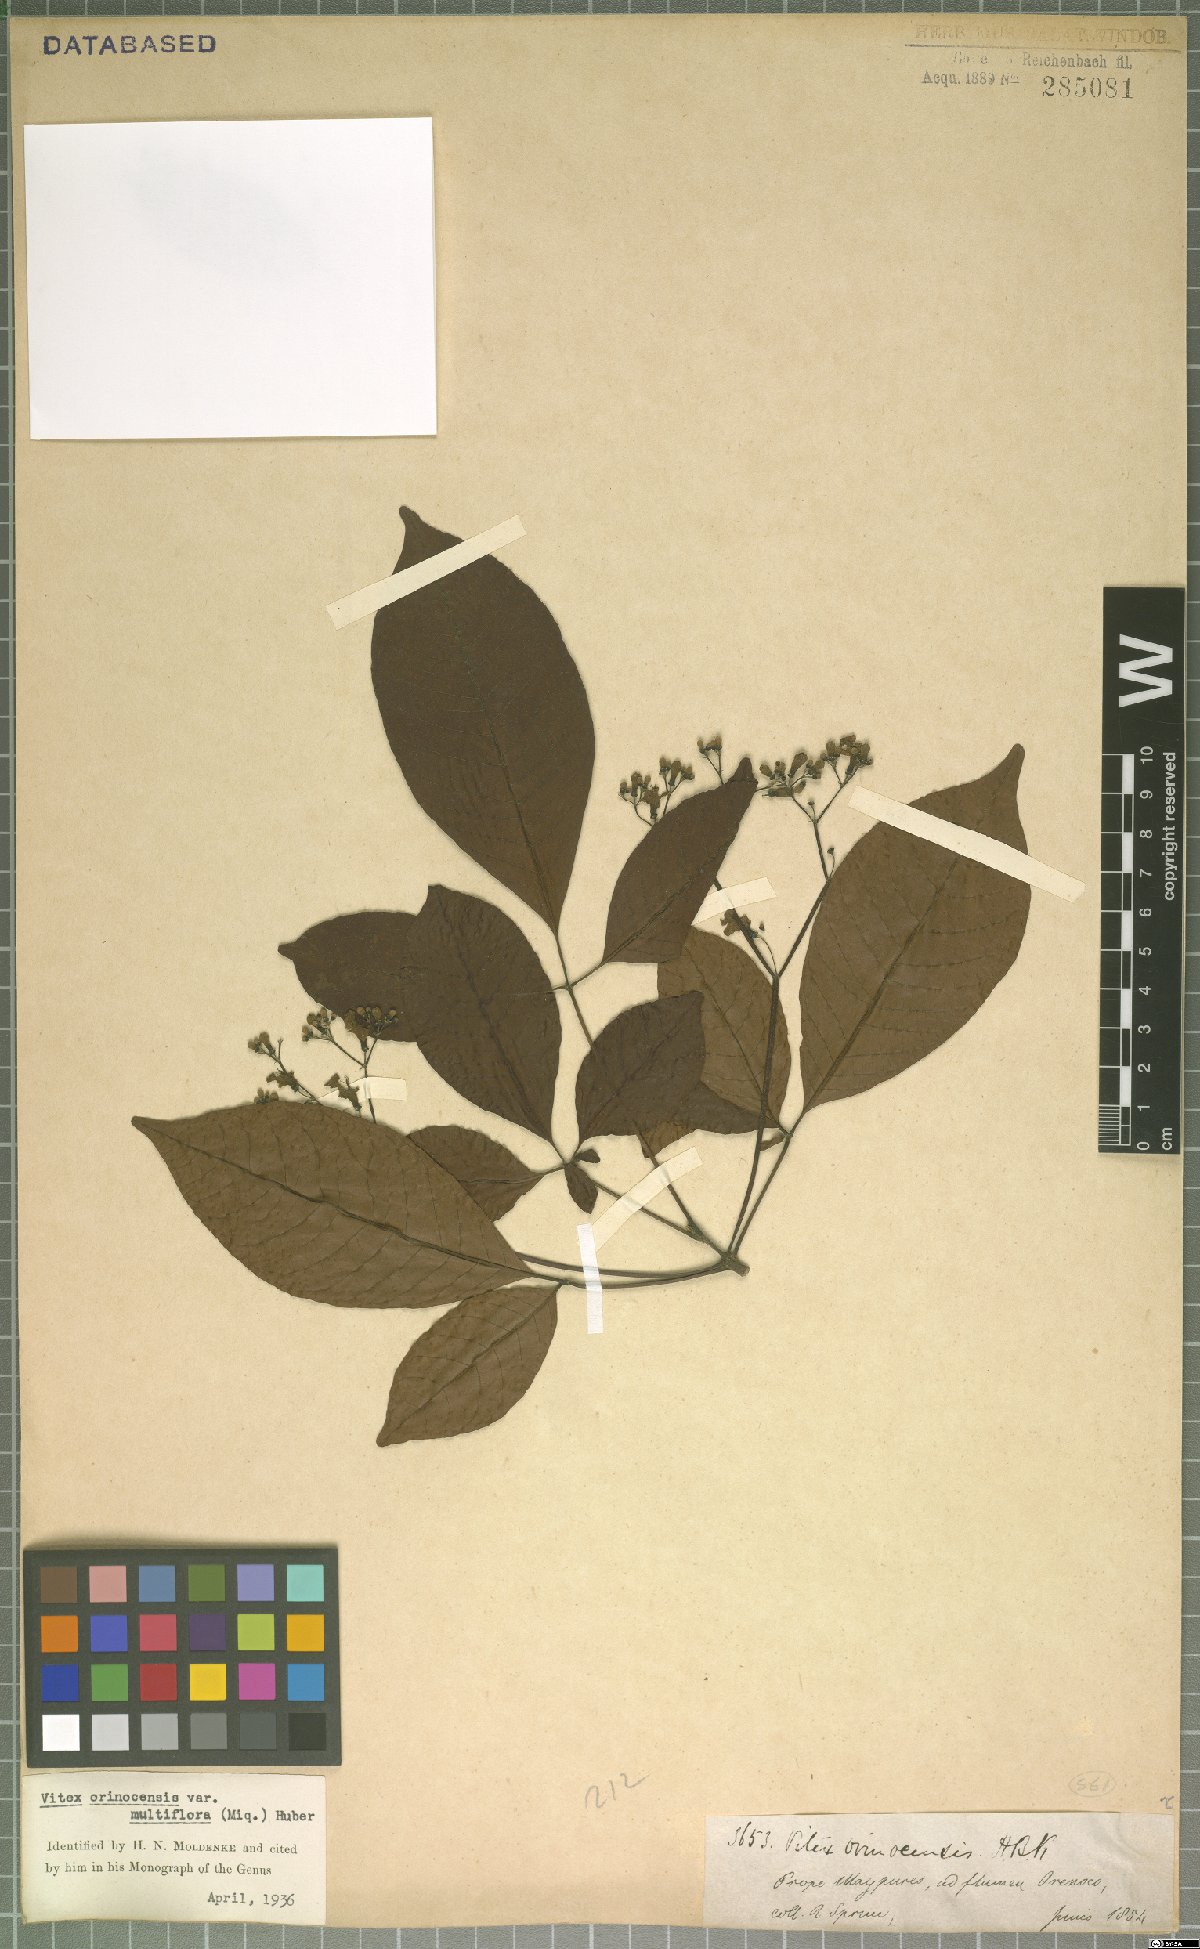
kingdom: Plantae
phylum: Tracheophyta
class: Magnoliopsida
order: Lamiales
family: Lamiaceae
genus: Vitex
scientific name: Vitex orinocensis
